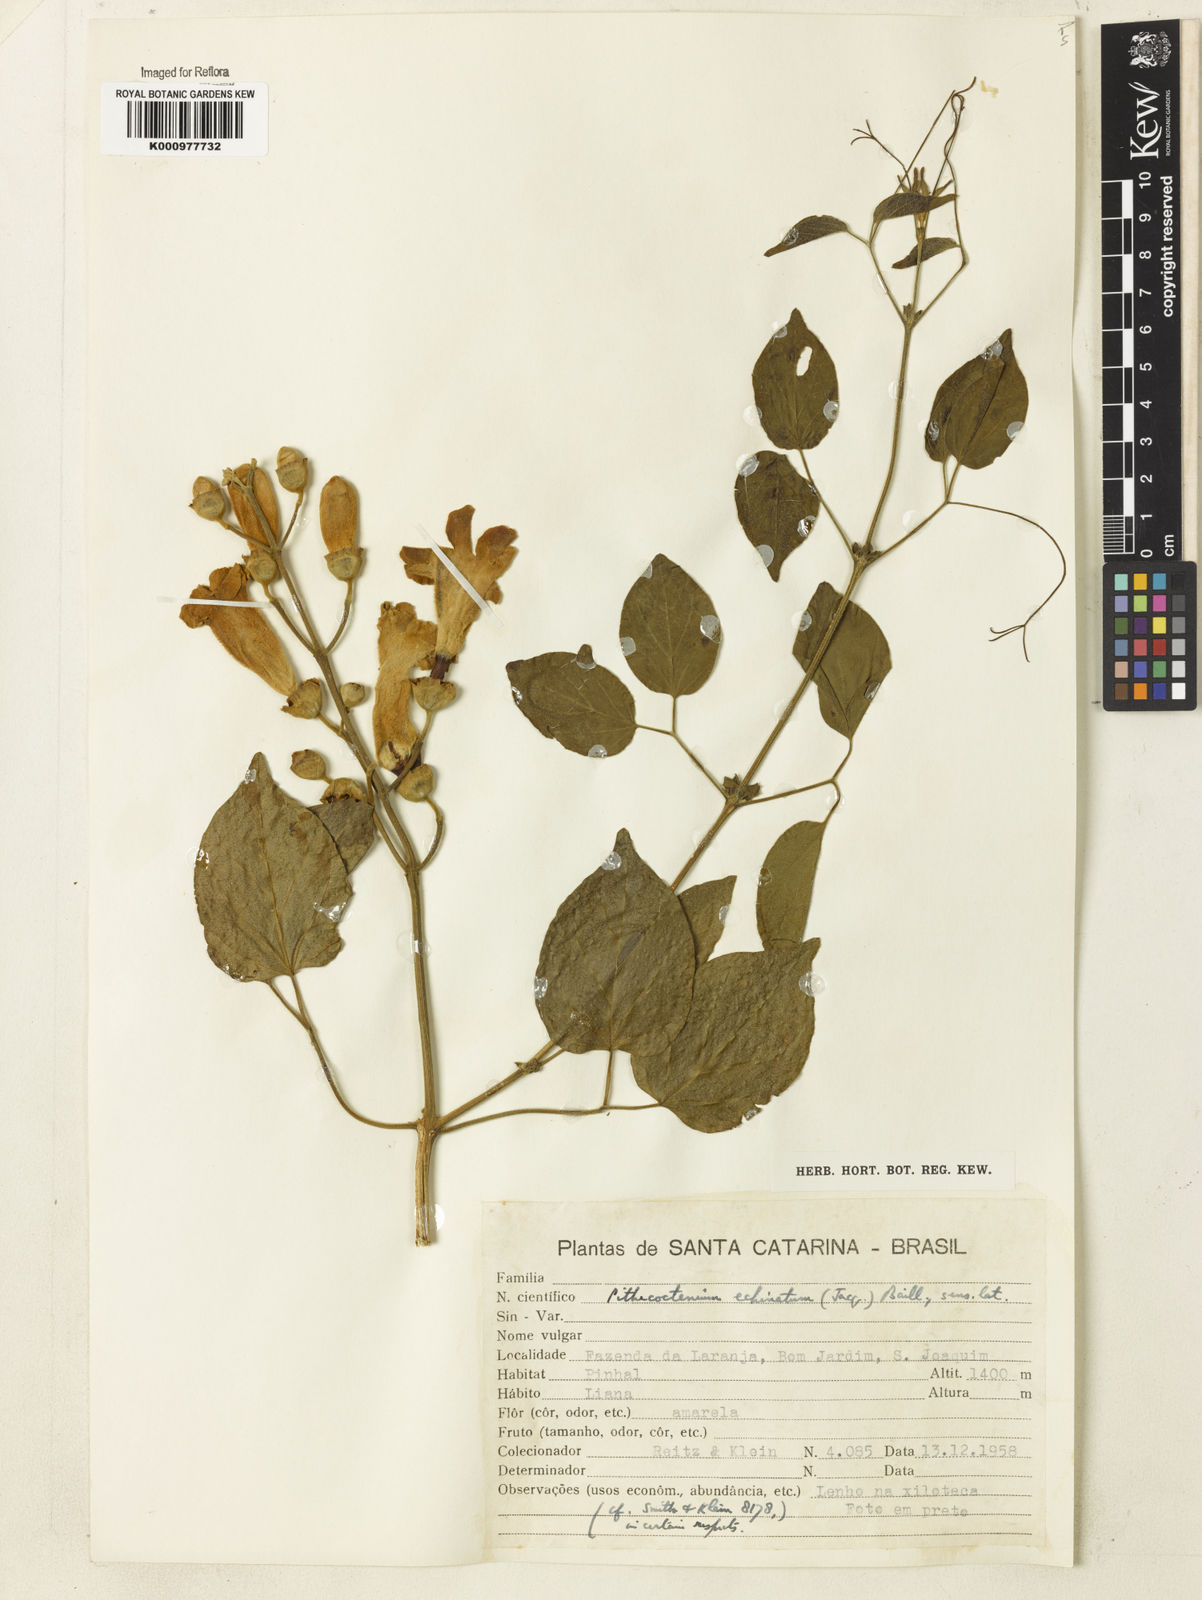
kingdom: Plantae
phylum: Tracheophyta
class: Magnoliopsida
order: Lamiales
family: Bignoniaceae
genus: Amphilophium
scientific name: Amphilophium crucigerum
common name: Monkey comb
